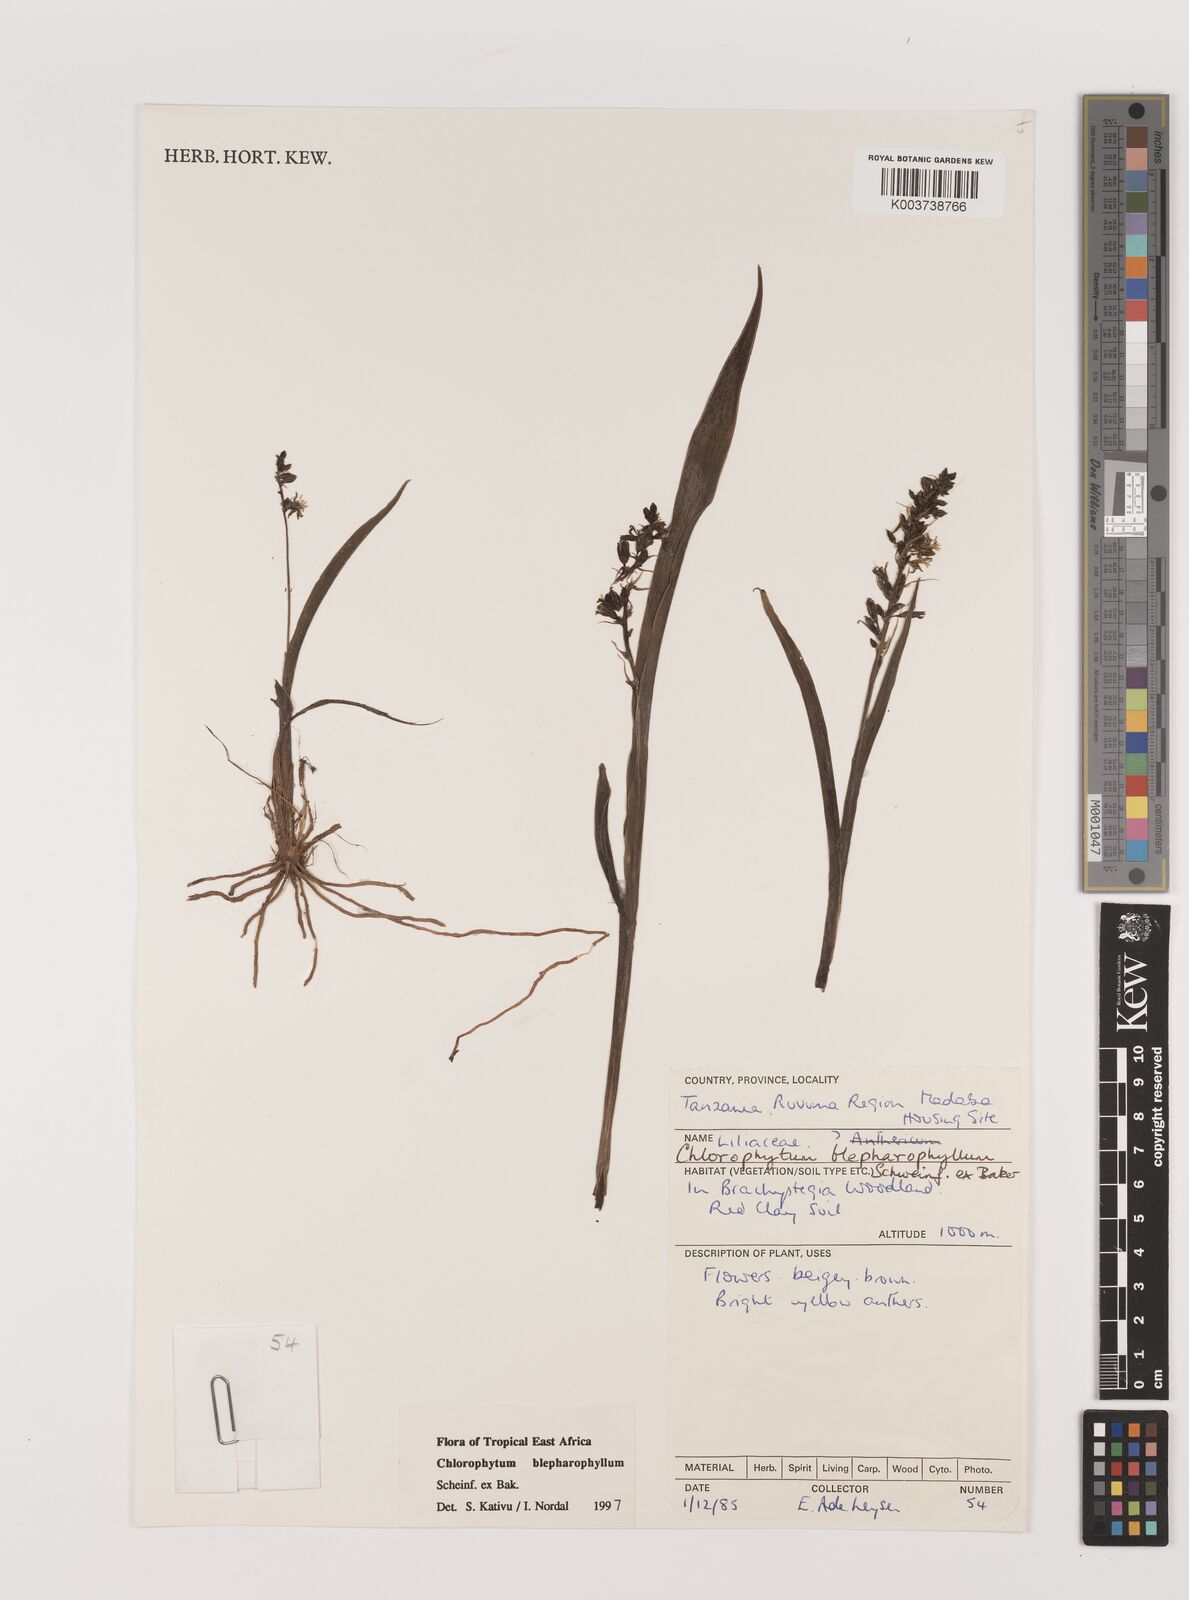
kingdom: Plantae
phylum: Tracheophyta
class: Liliopsida
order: Asparagales
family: Asparagaceae
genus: Chlorophytum
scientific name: Chlorophytum blepharophyllum
